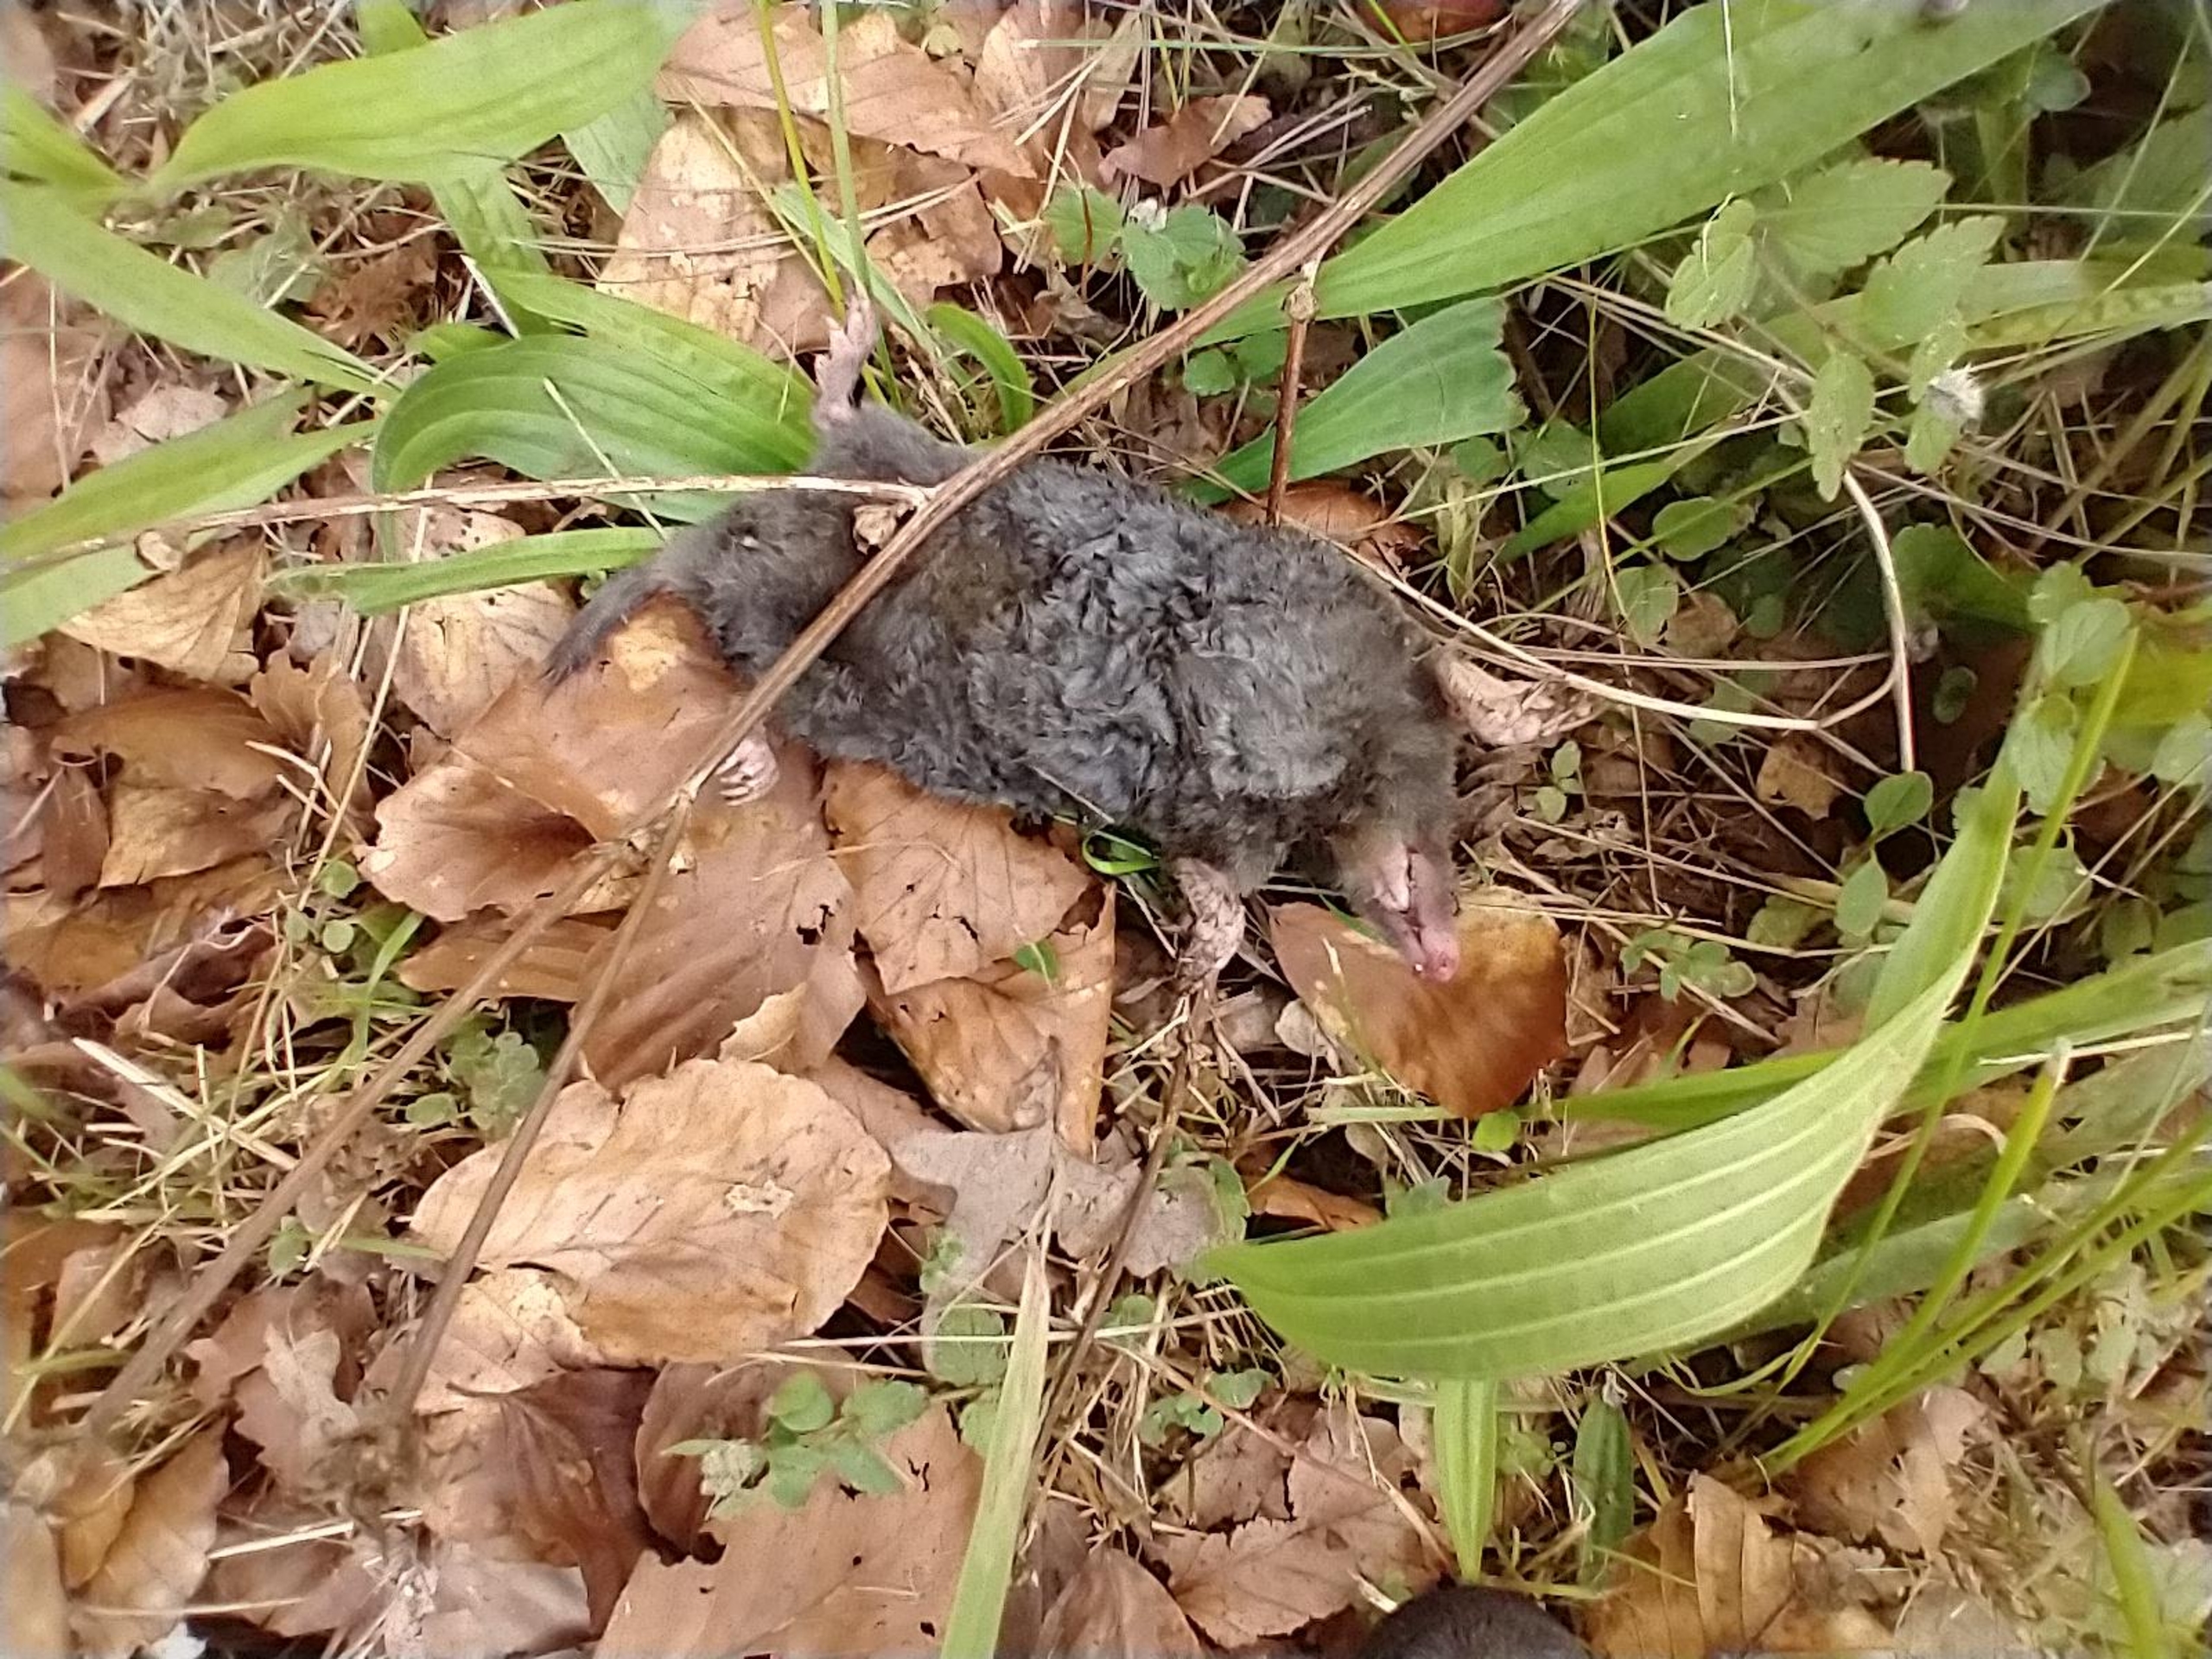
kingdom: Animalia
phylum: Chordata
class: Mammalia
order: Soricomorpha
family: Talpidae
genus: Talpa
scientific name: Talpa europaea
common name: Muldvarp
